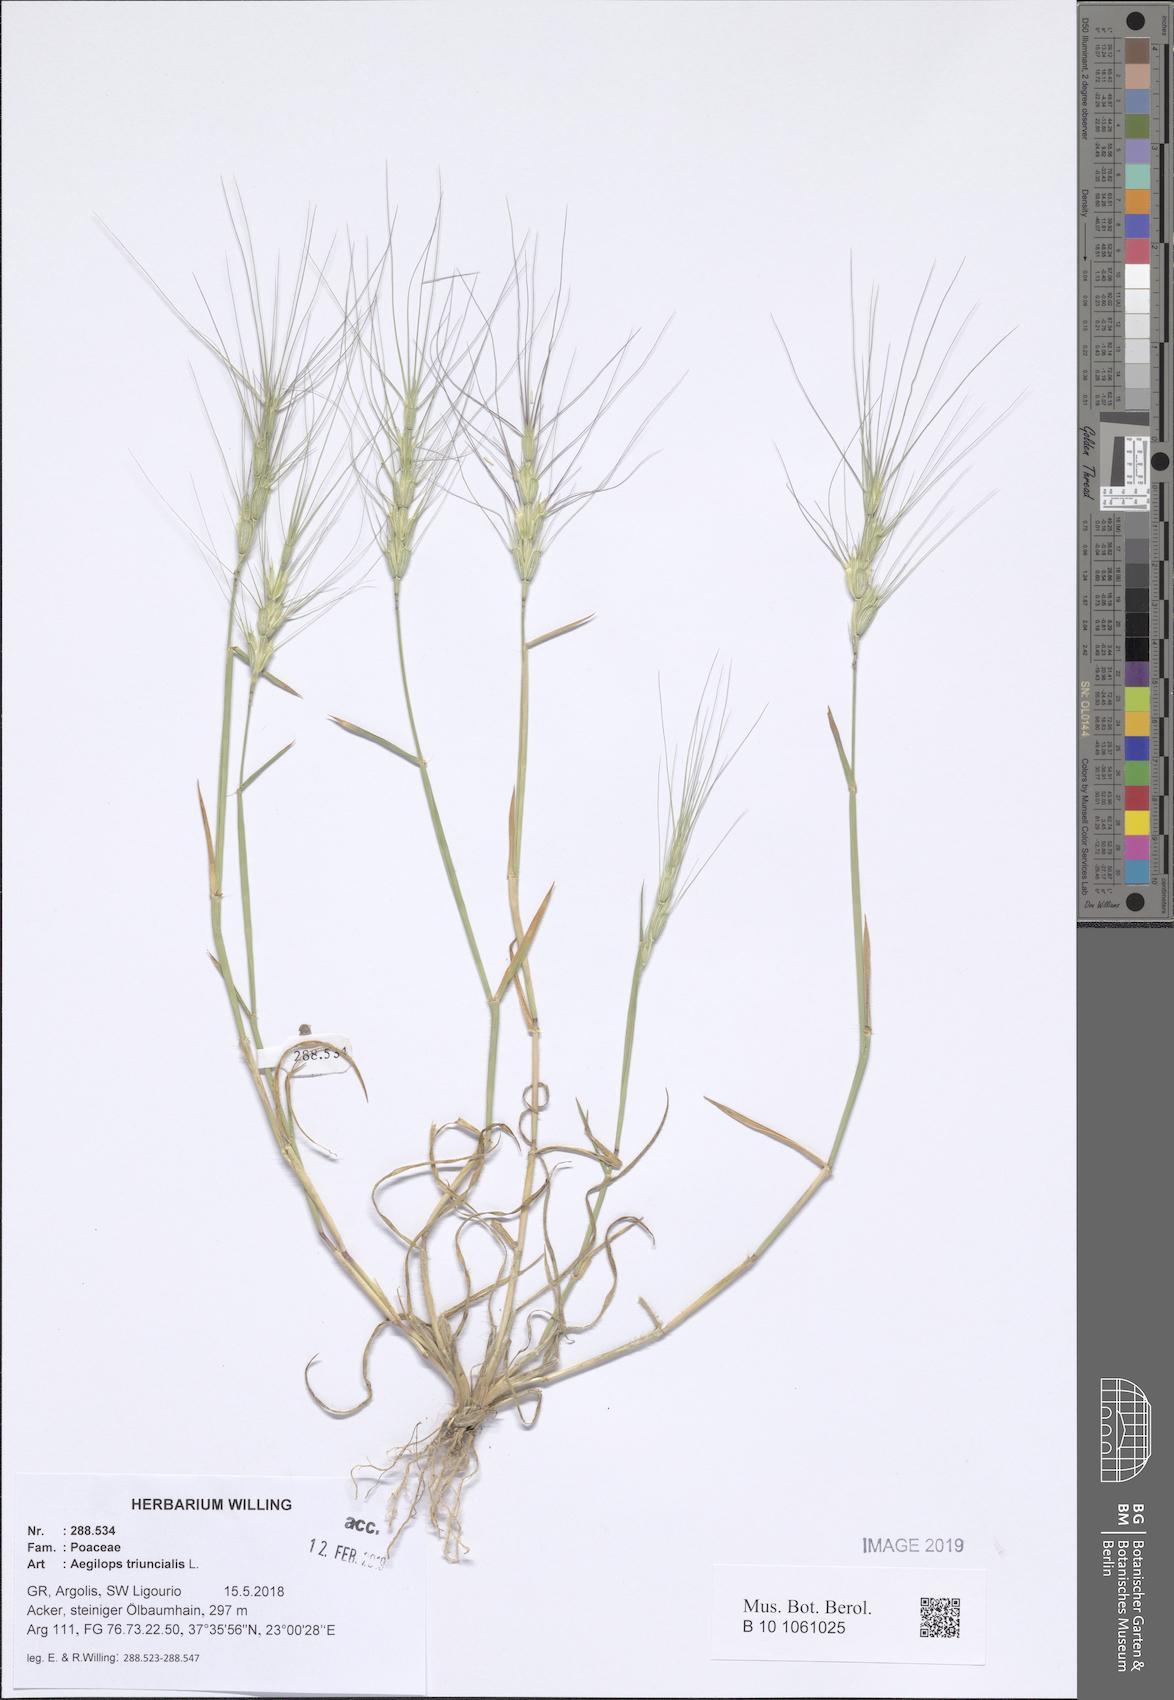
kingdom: Plantae
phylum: Tracheophyta
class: Liliopsida
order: Poales
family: Poaceae
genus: Aegilops
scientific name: Aegilops triuncialis
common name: Barb goat grass
